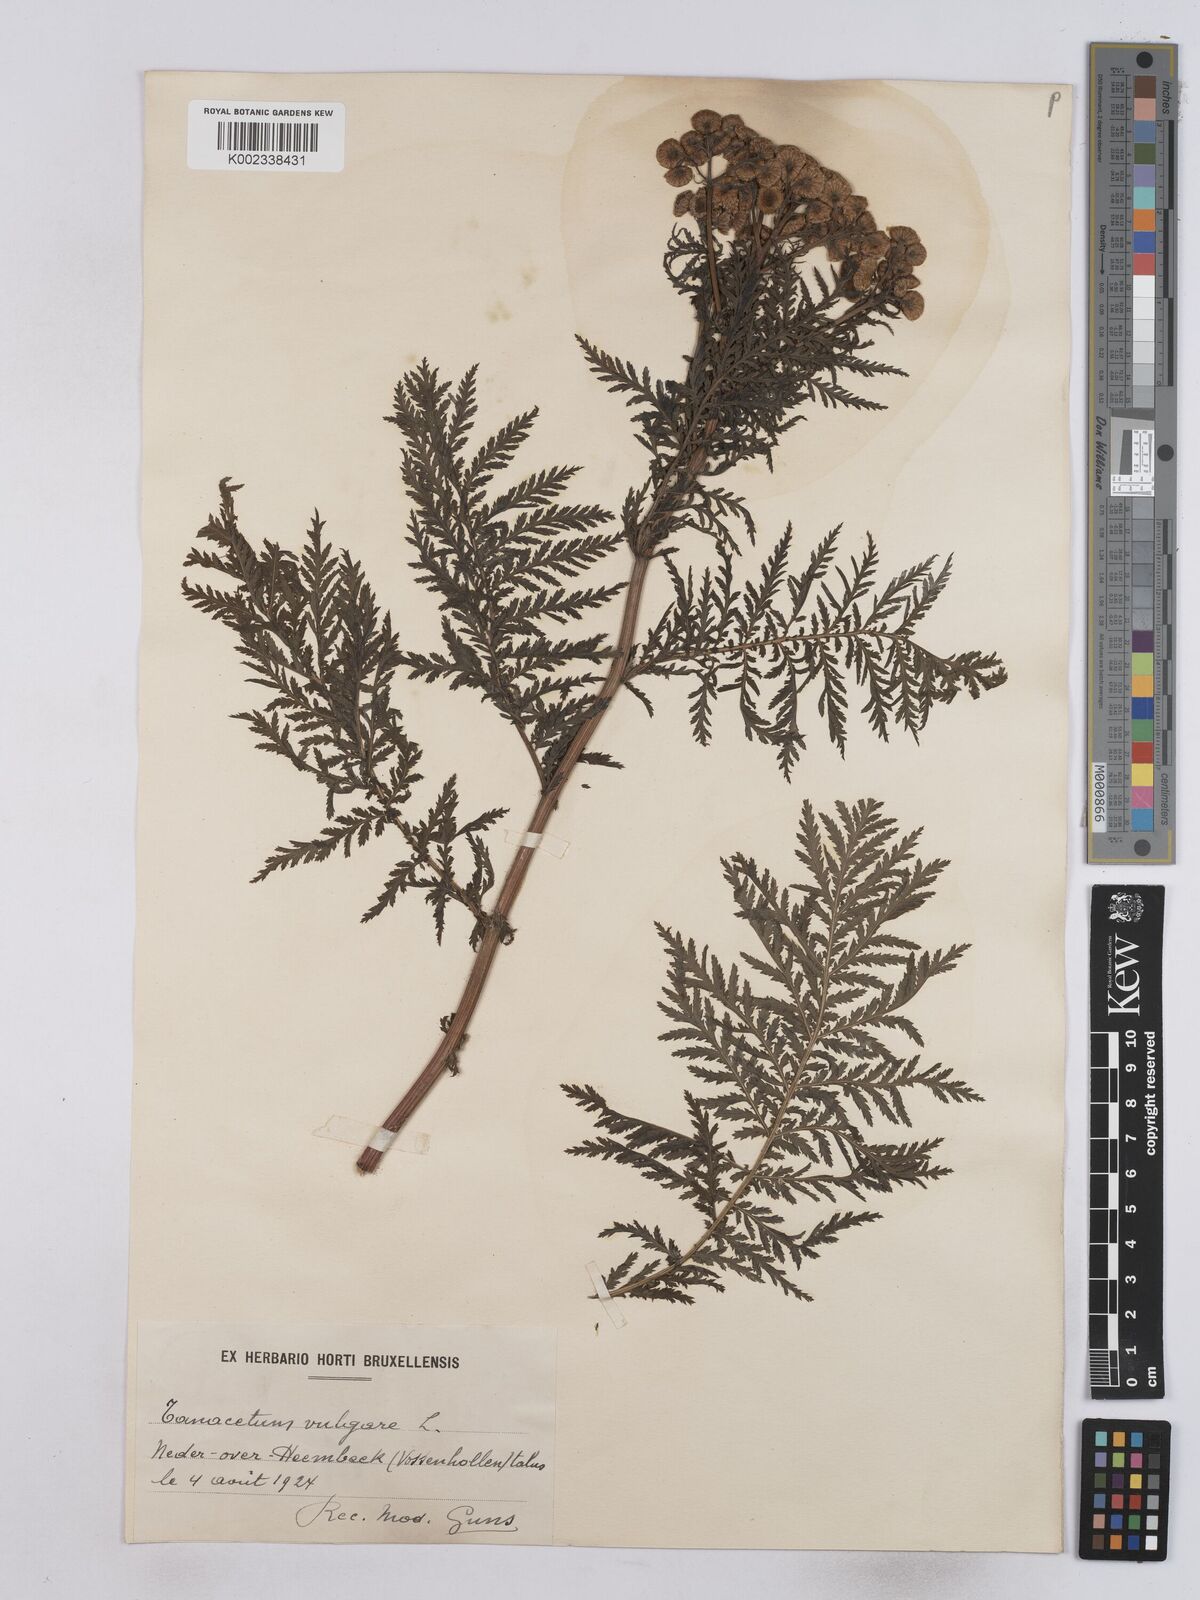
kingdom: Plantae
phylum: Tracheophyta
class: Magnoliopsida
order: Asterales
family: Asteraceae
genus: Tanacetum
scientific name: Tanacetum vulgare
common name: Common tansy
